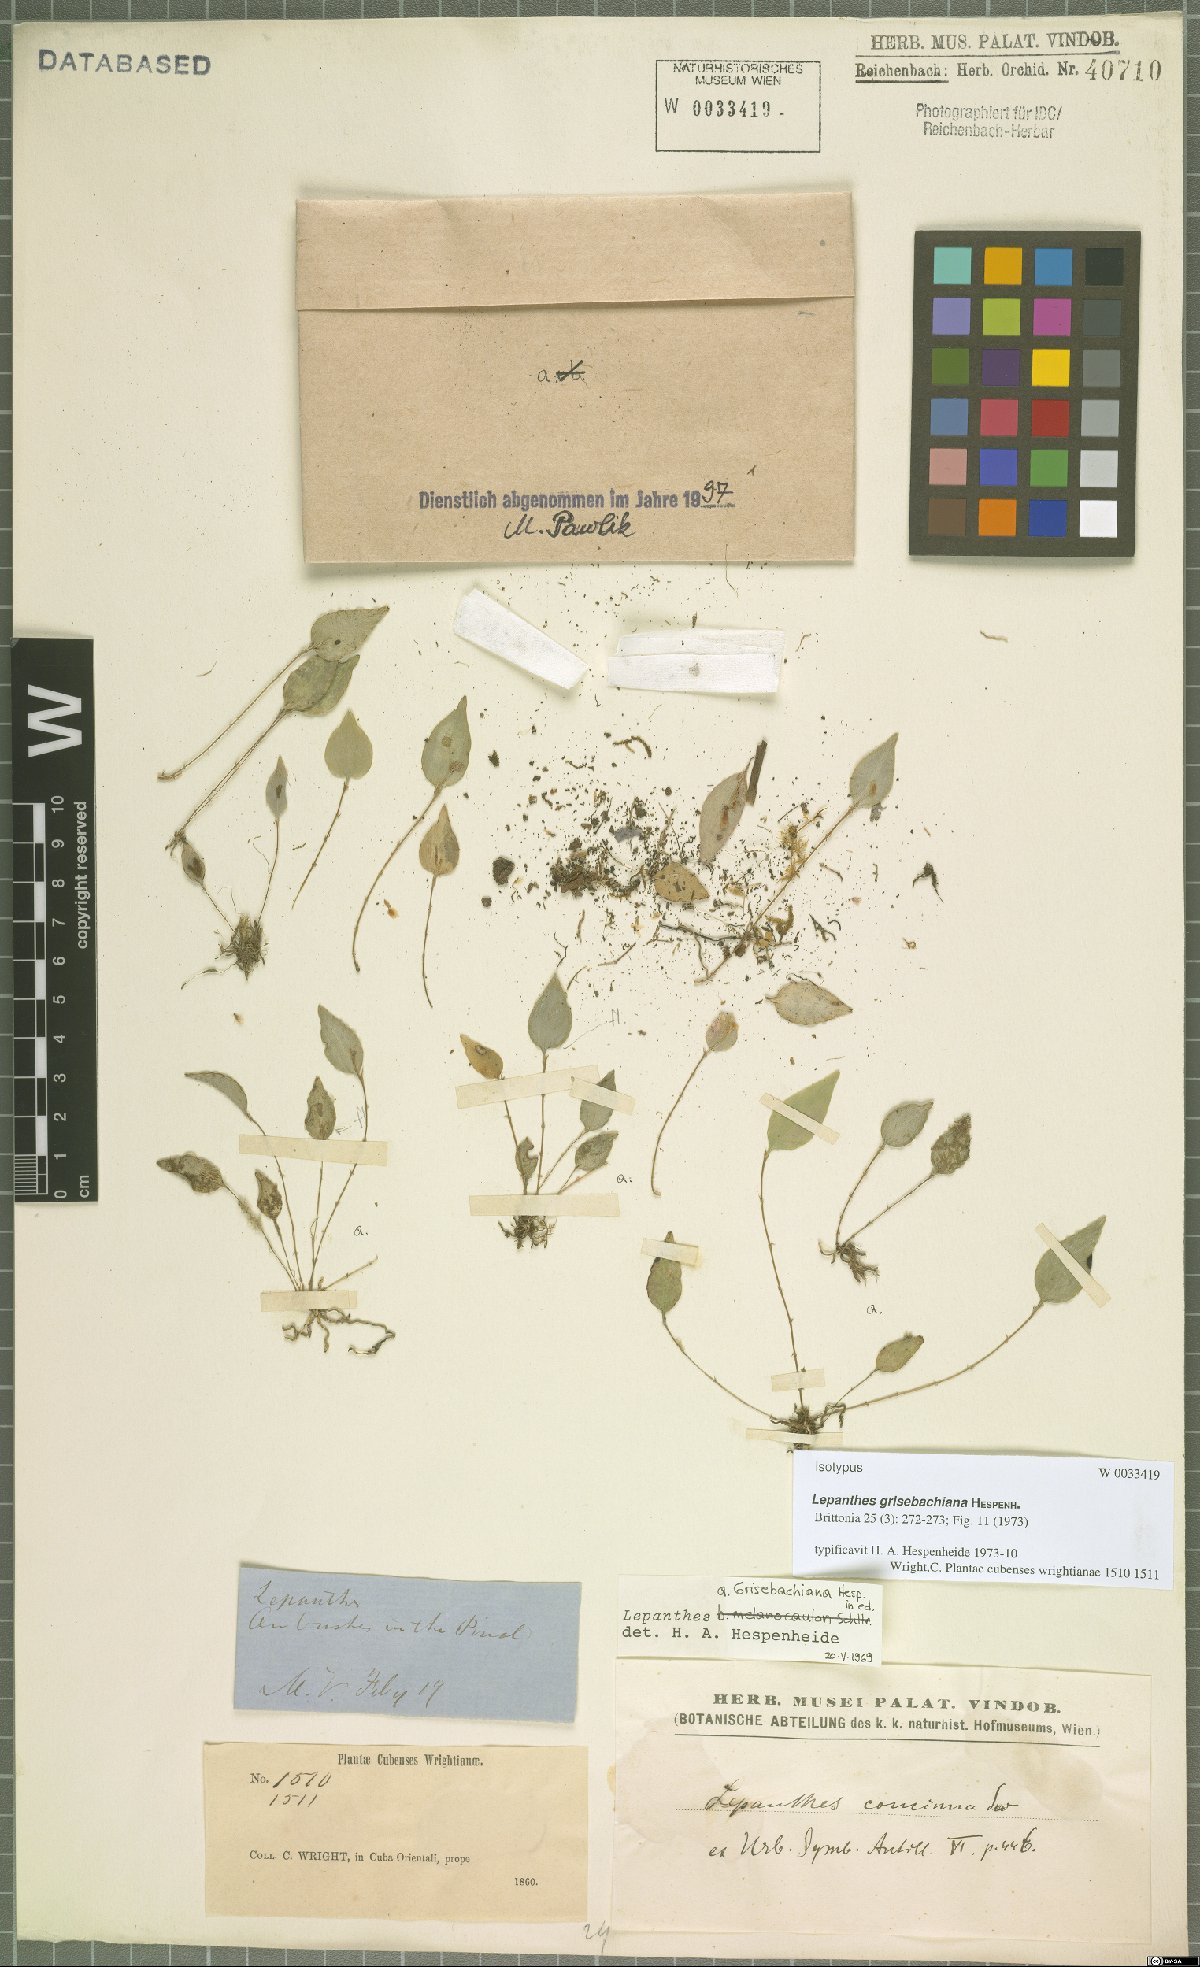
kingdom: Plantae
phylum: Tracheophyta
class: Liliopsida
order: Asparagales
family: Orchidaceae
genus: Lepanthes
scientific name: Lepanthes grisebachiana
